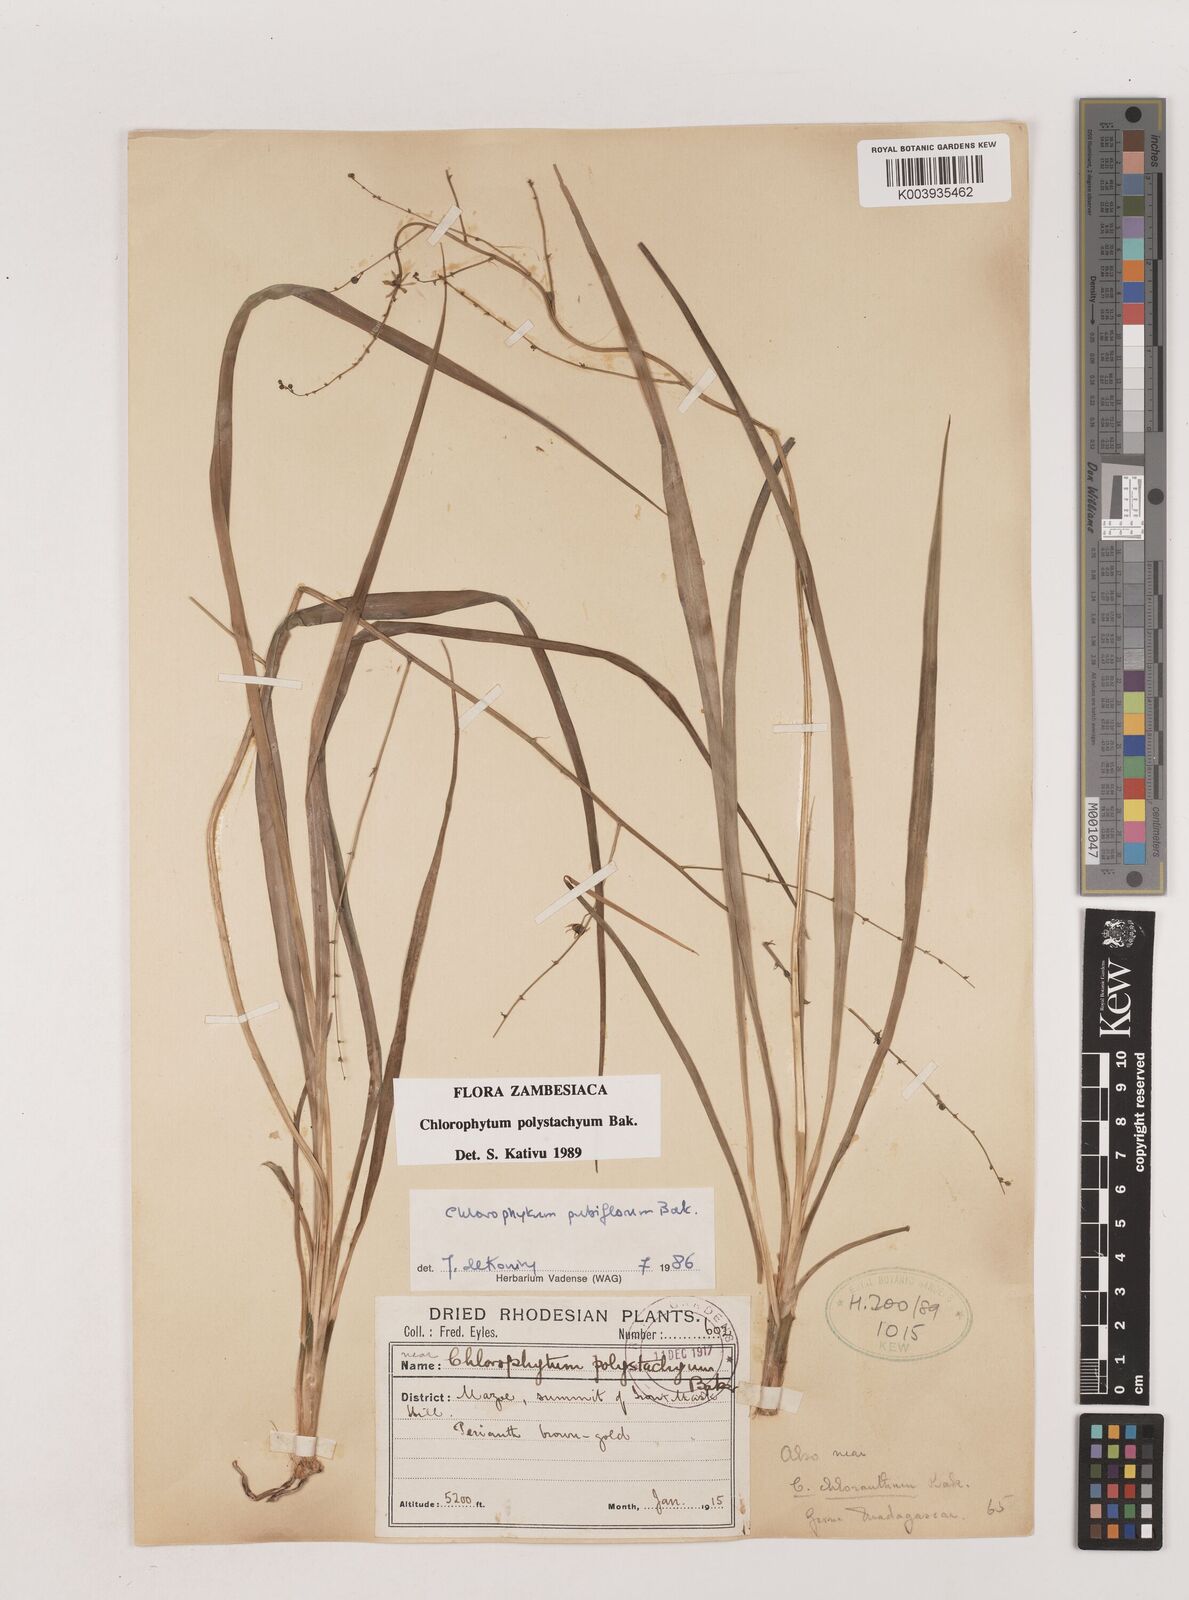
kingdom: Plantae
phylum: Tracheophyta
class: Liliopsida
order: Asparagales
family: Asparagaceae
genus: Chlorophytum
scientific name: Chlorophytum polystachys
